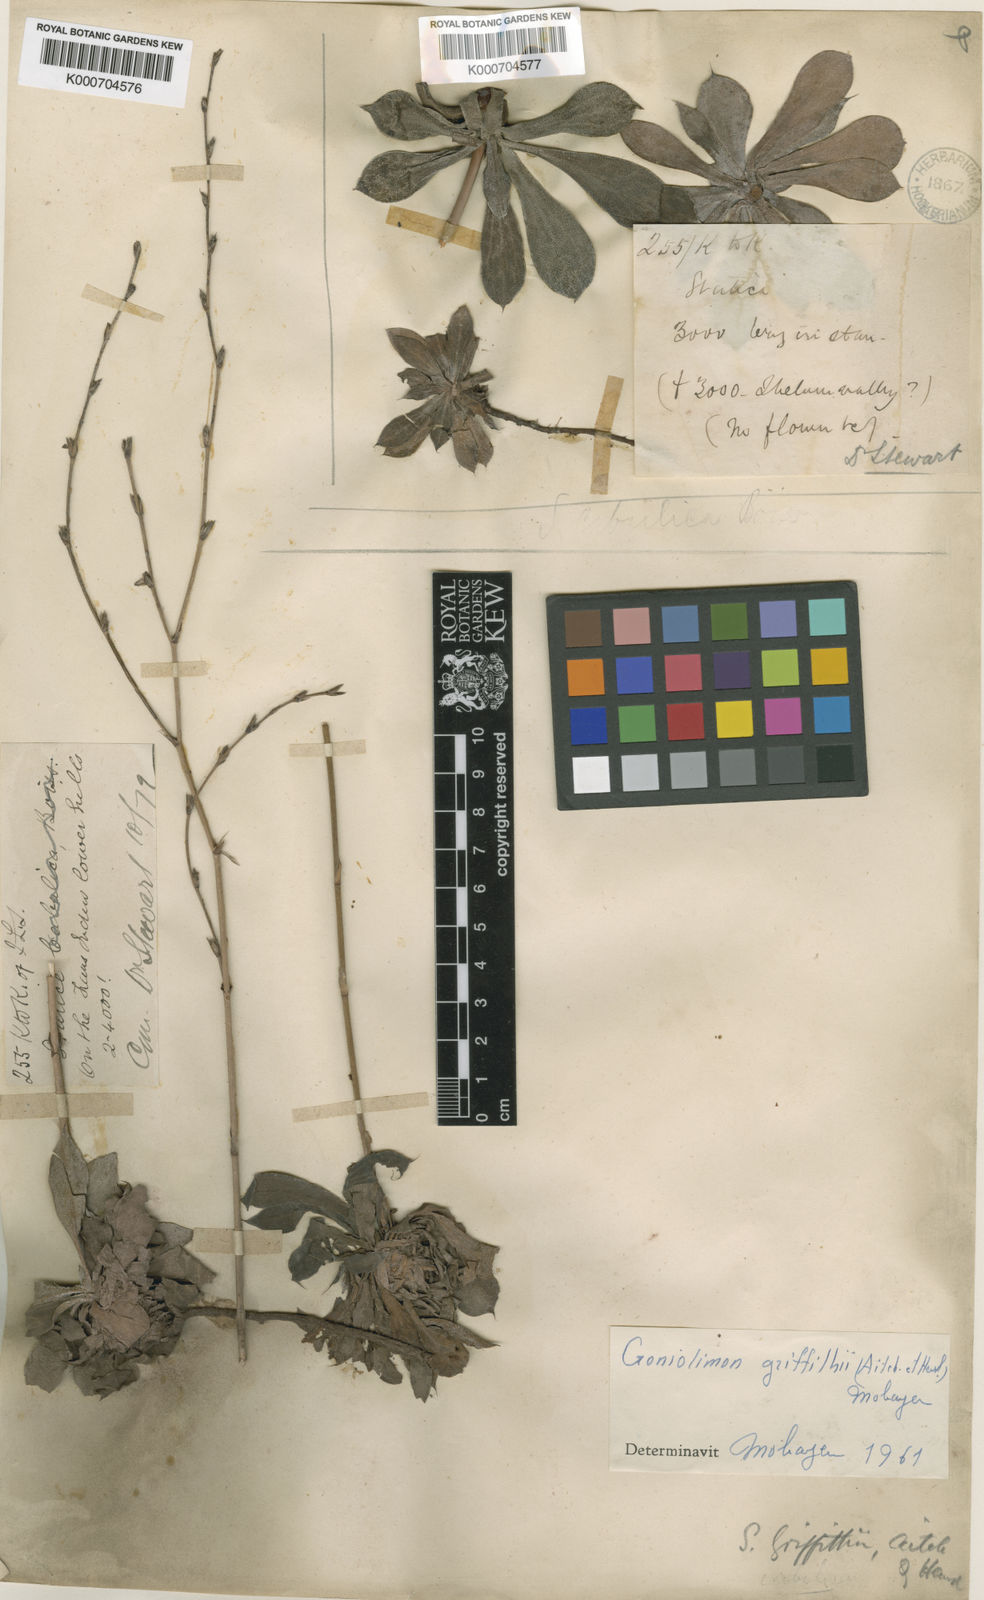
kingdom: Plantae
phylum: Tracheophyta
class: Magnoliopsida
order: Caryophyllales
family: Plumbaginaceae
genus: Dictyolimon
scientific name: Dictyolimon griffithii
